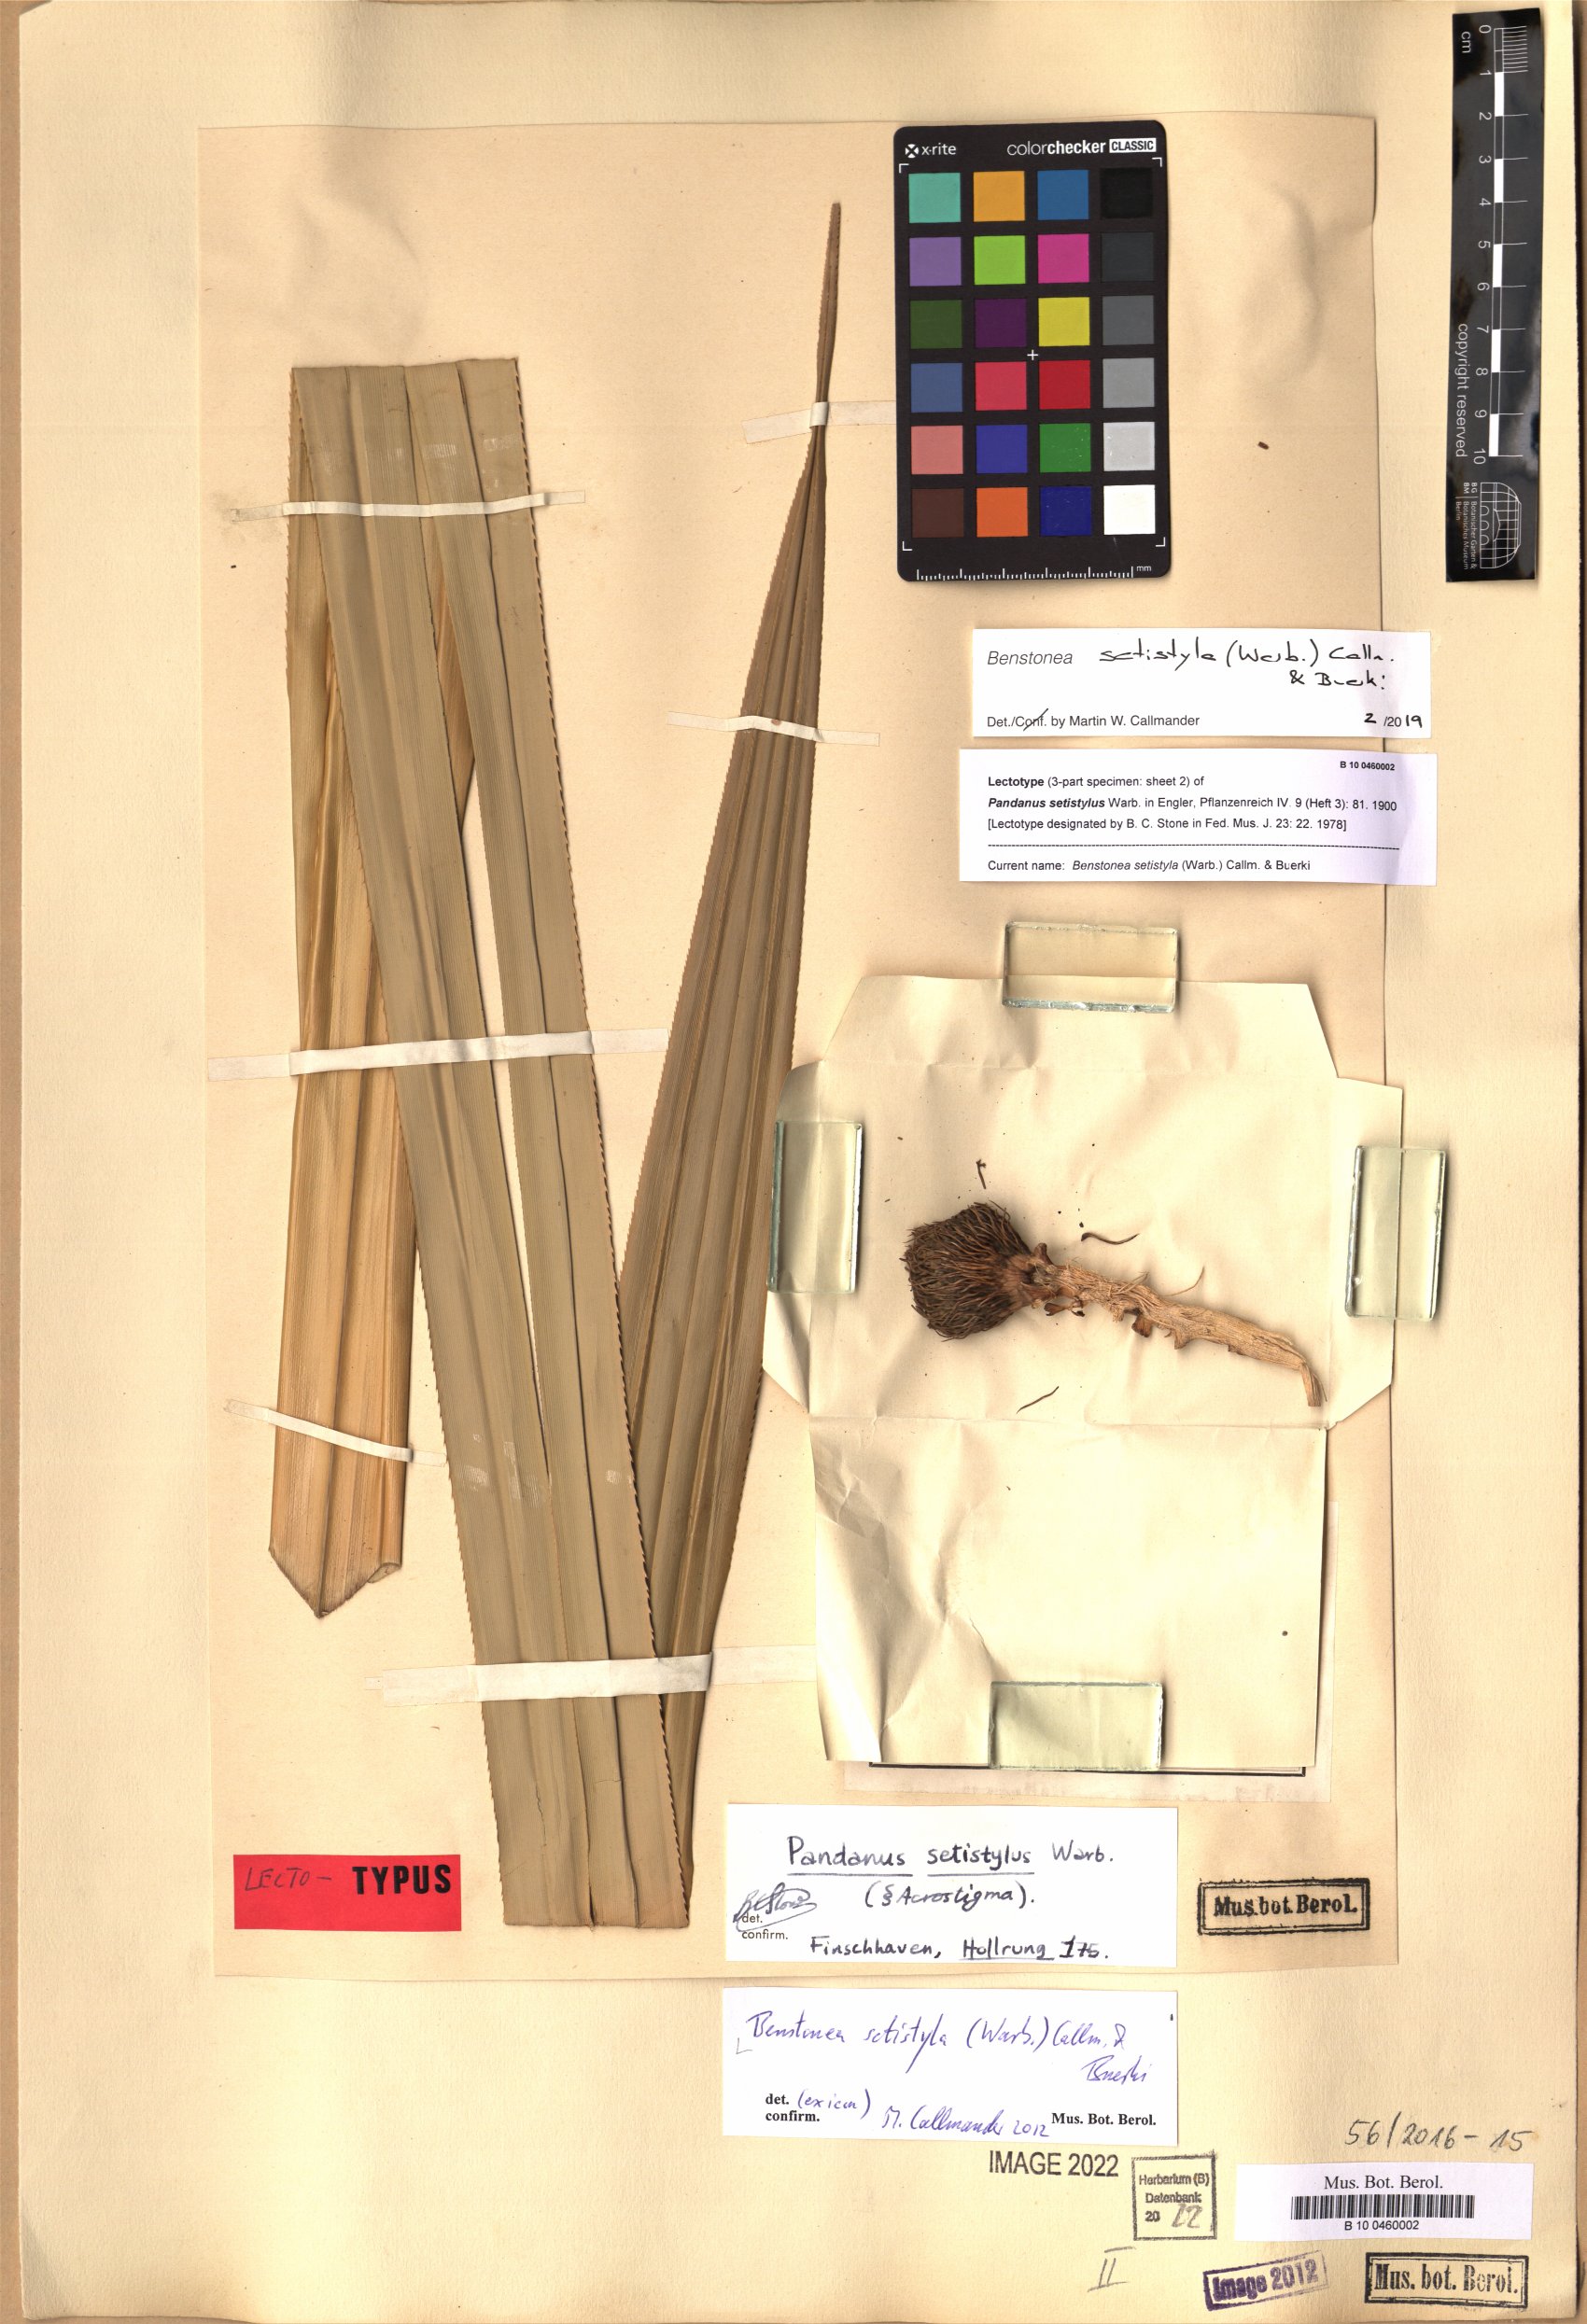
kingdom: Plantae
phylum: Tracheophyta
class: Liliopsida
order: Pandanales
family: Pandanaceae
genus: Benstonea
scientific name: Benstonea setistyla
